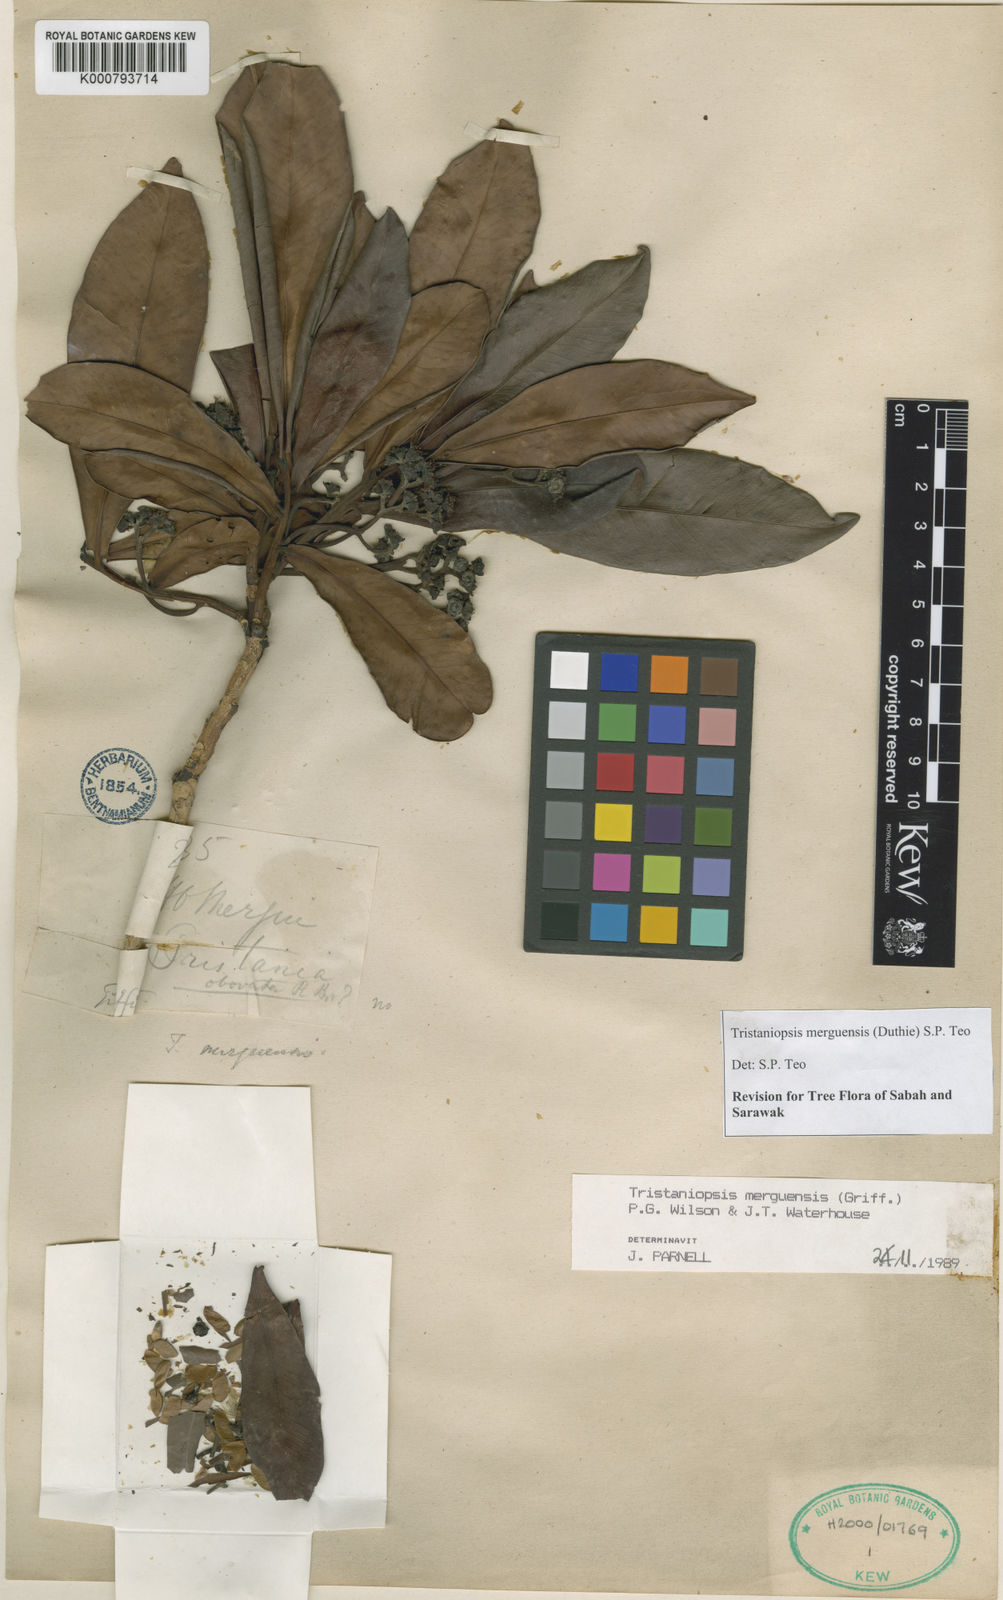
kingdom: Plantae
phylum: Tracheophyta
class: Magnoliopsida
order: Myrtales
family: Myrtaceae
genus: Tristaniopsis
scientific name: Tristaniopsis merguensis
